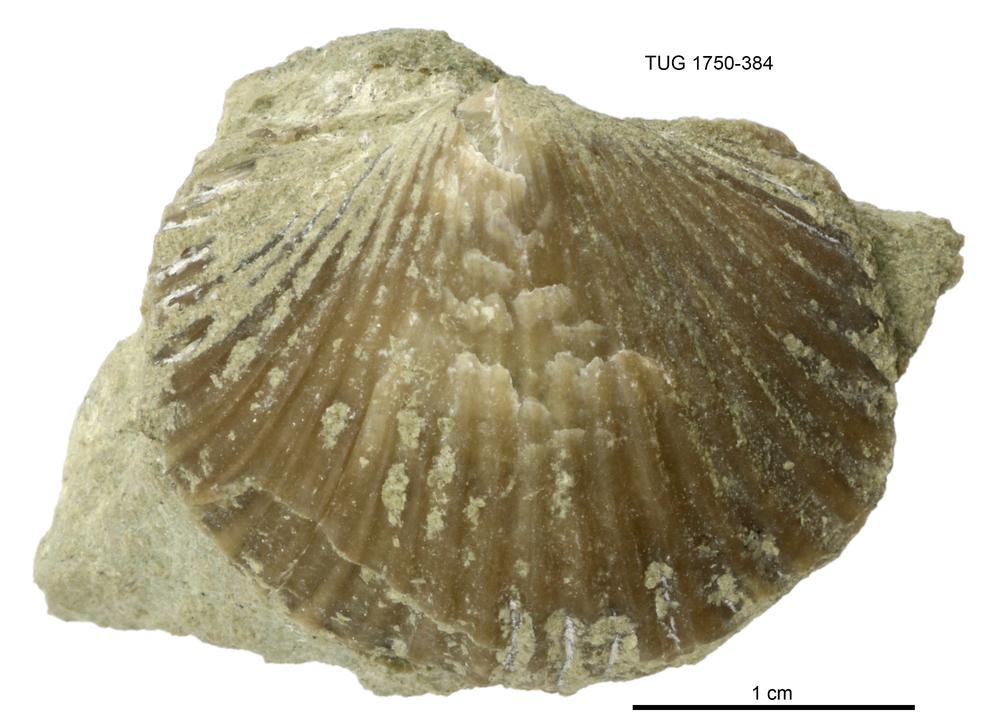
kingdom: Animalia
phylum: Brachiopoda
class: Rhynchonellata
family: Orthidae
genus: Orthambonites
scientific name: Orthambonites
